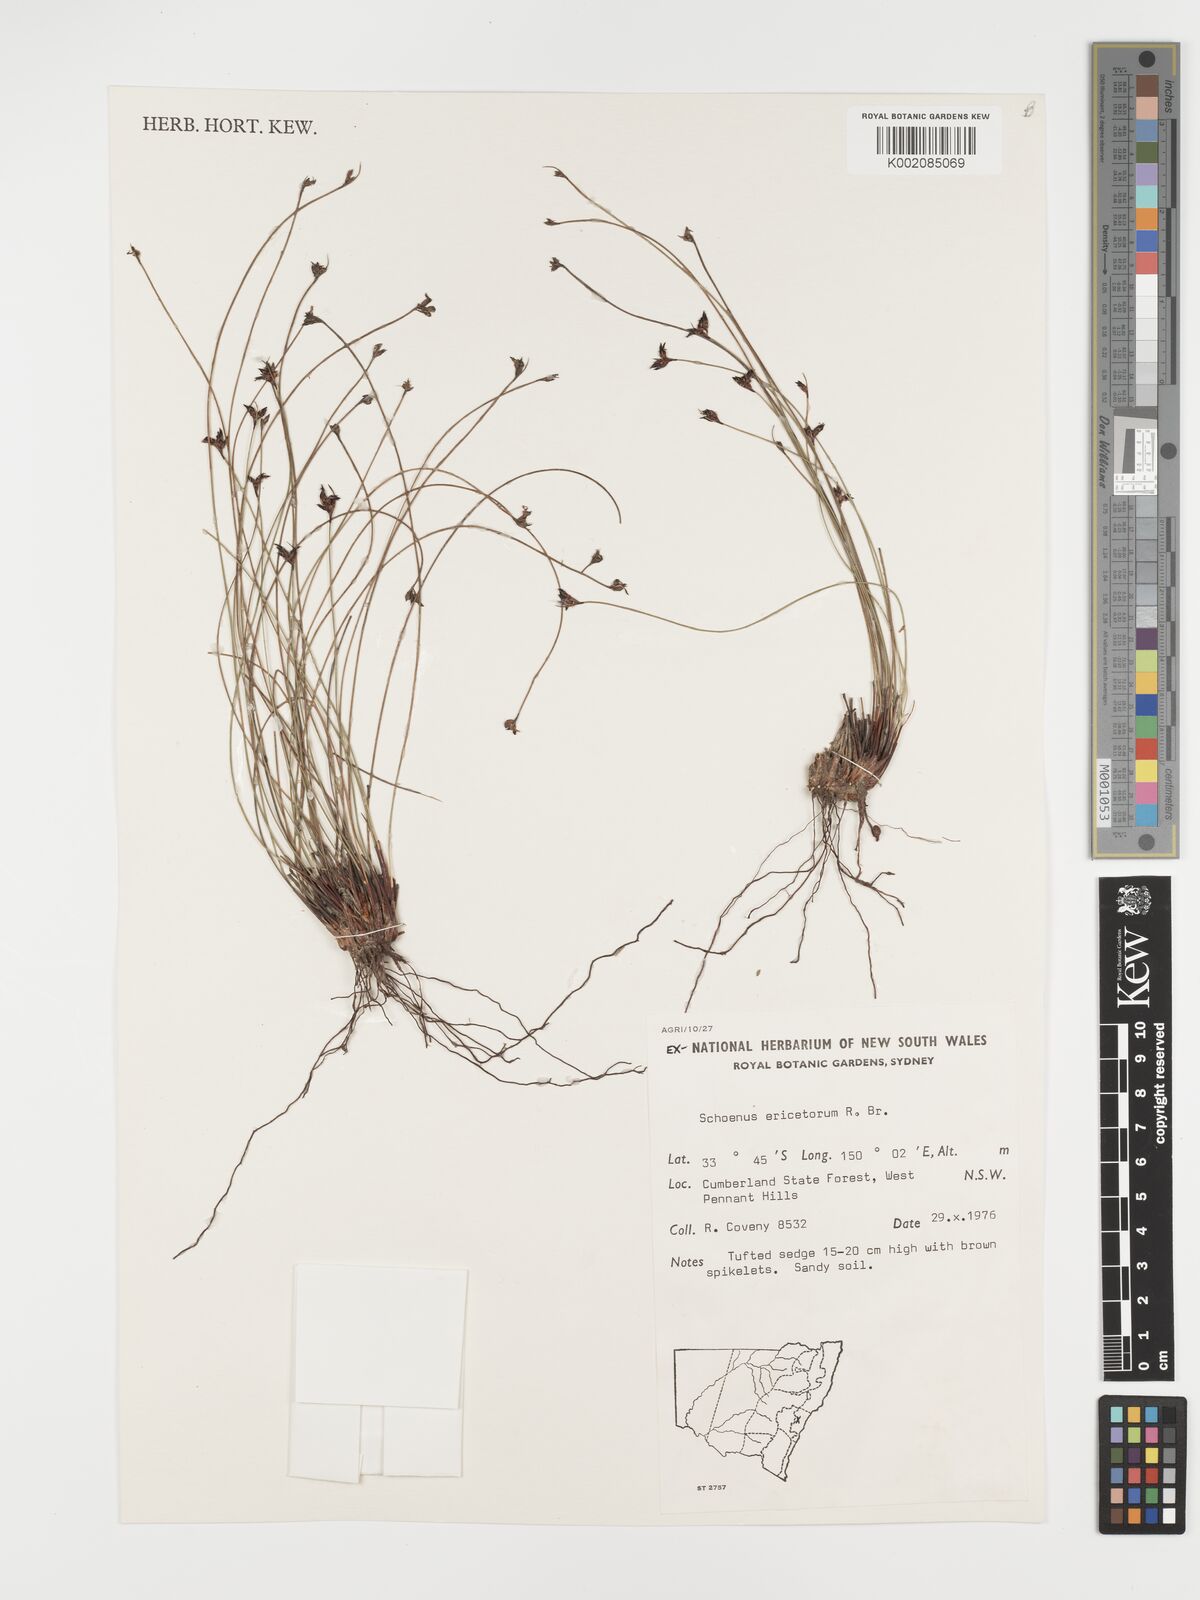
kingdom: Plantae
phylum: Tracheophyta
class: Liliopsida
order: Poales
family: Cyperaceae
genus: Schoenus
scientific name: Schoenus ericetorum
